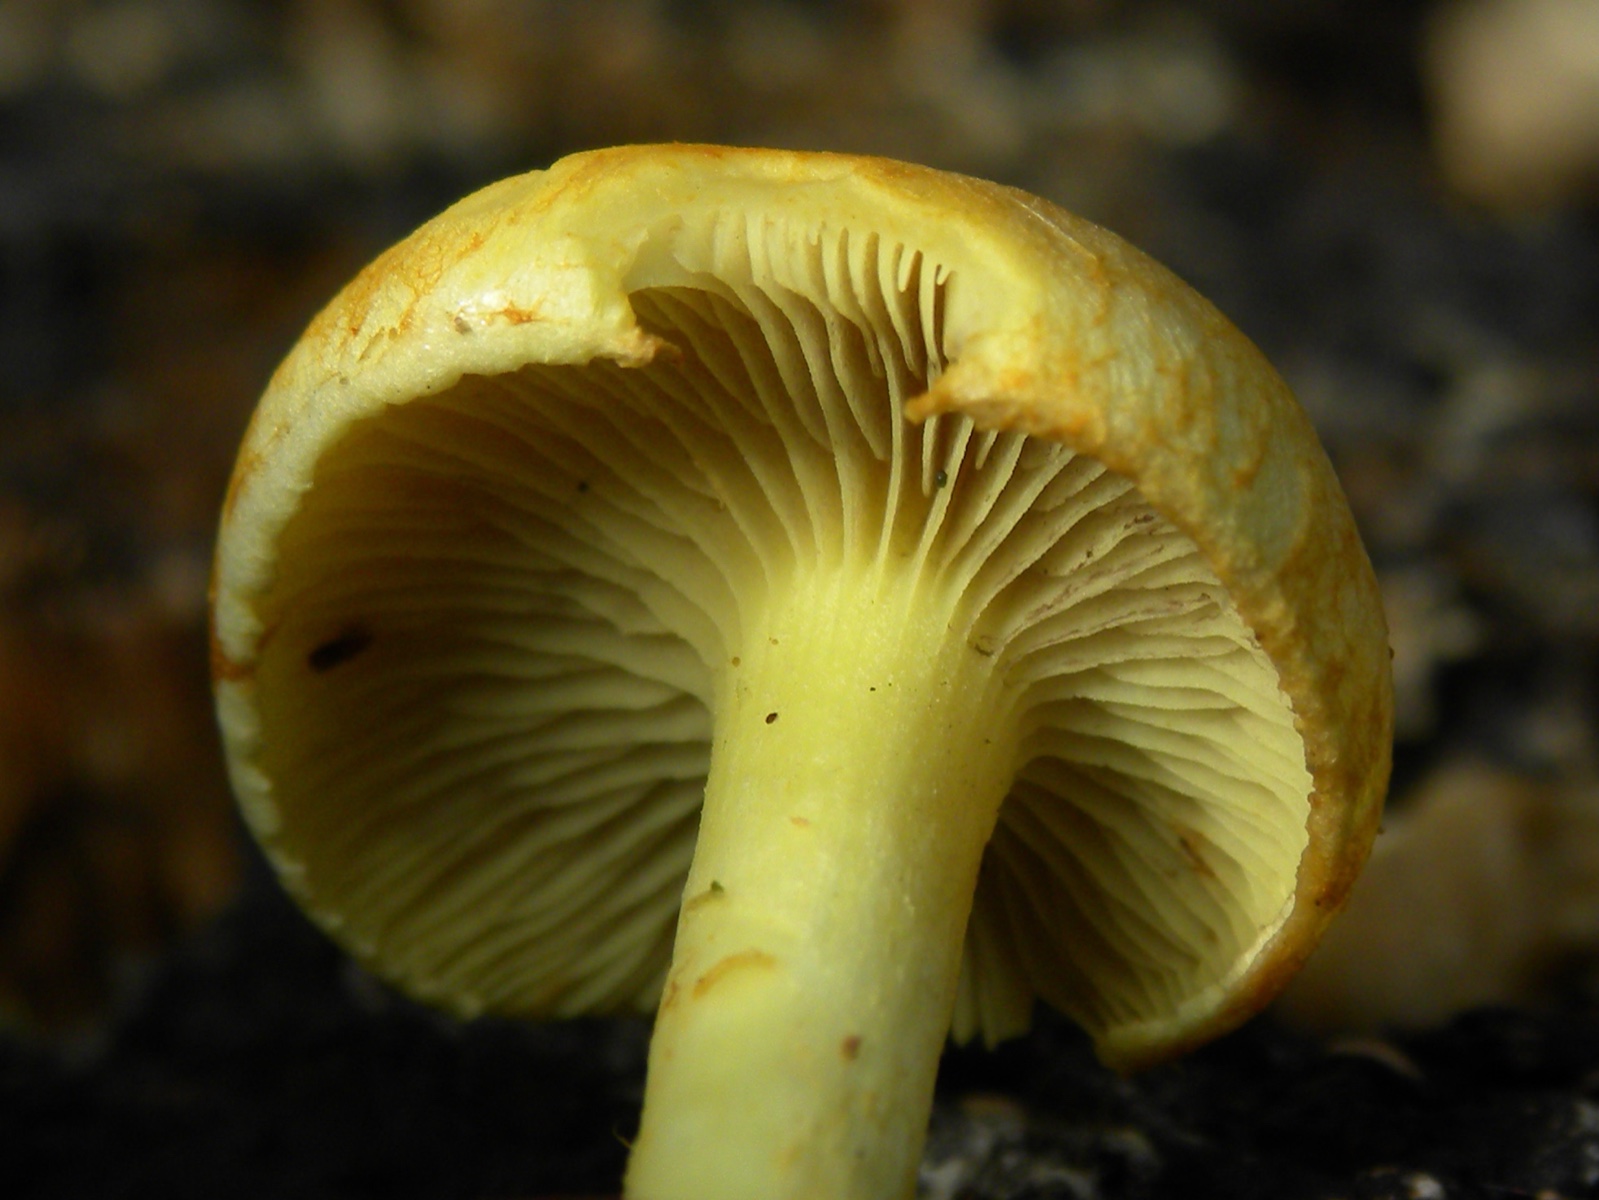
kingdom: Fungi
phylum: Basidiomycota
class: Agaricomycetes
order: Agaricales
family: Strophariaceae
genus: Hypholoma
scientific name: Hypholoma fasciculare
